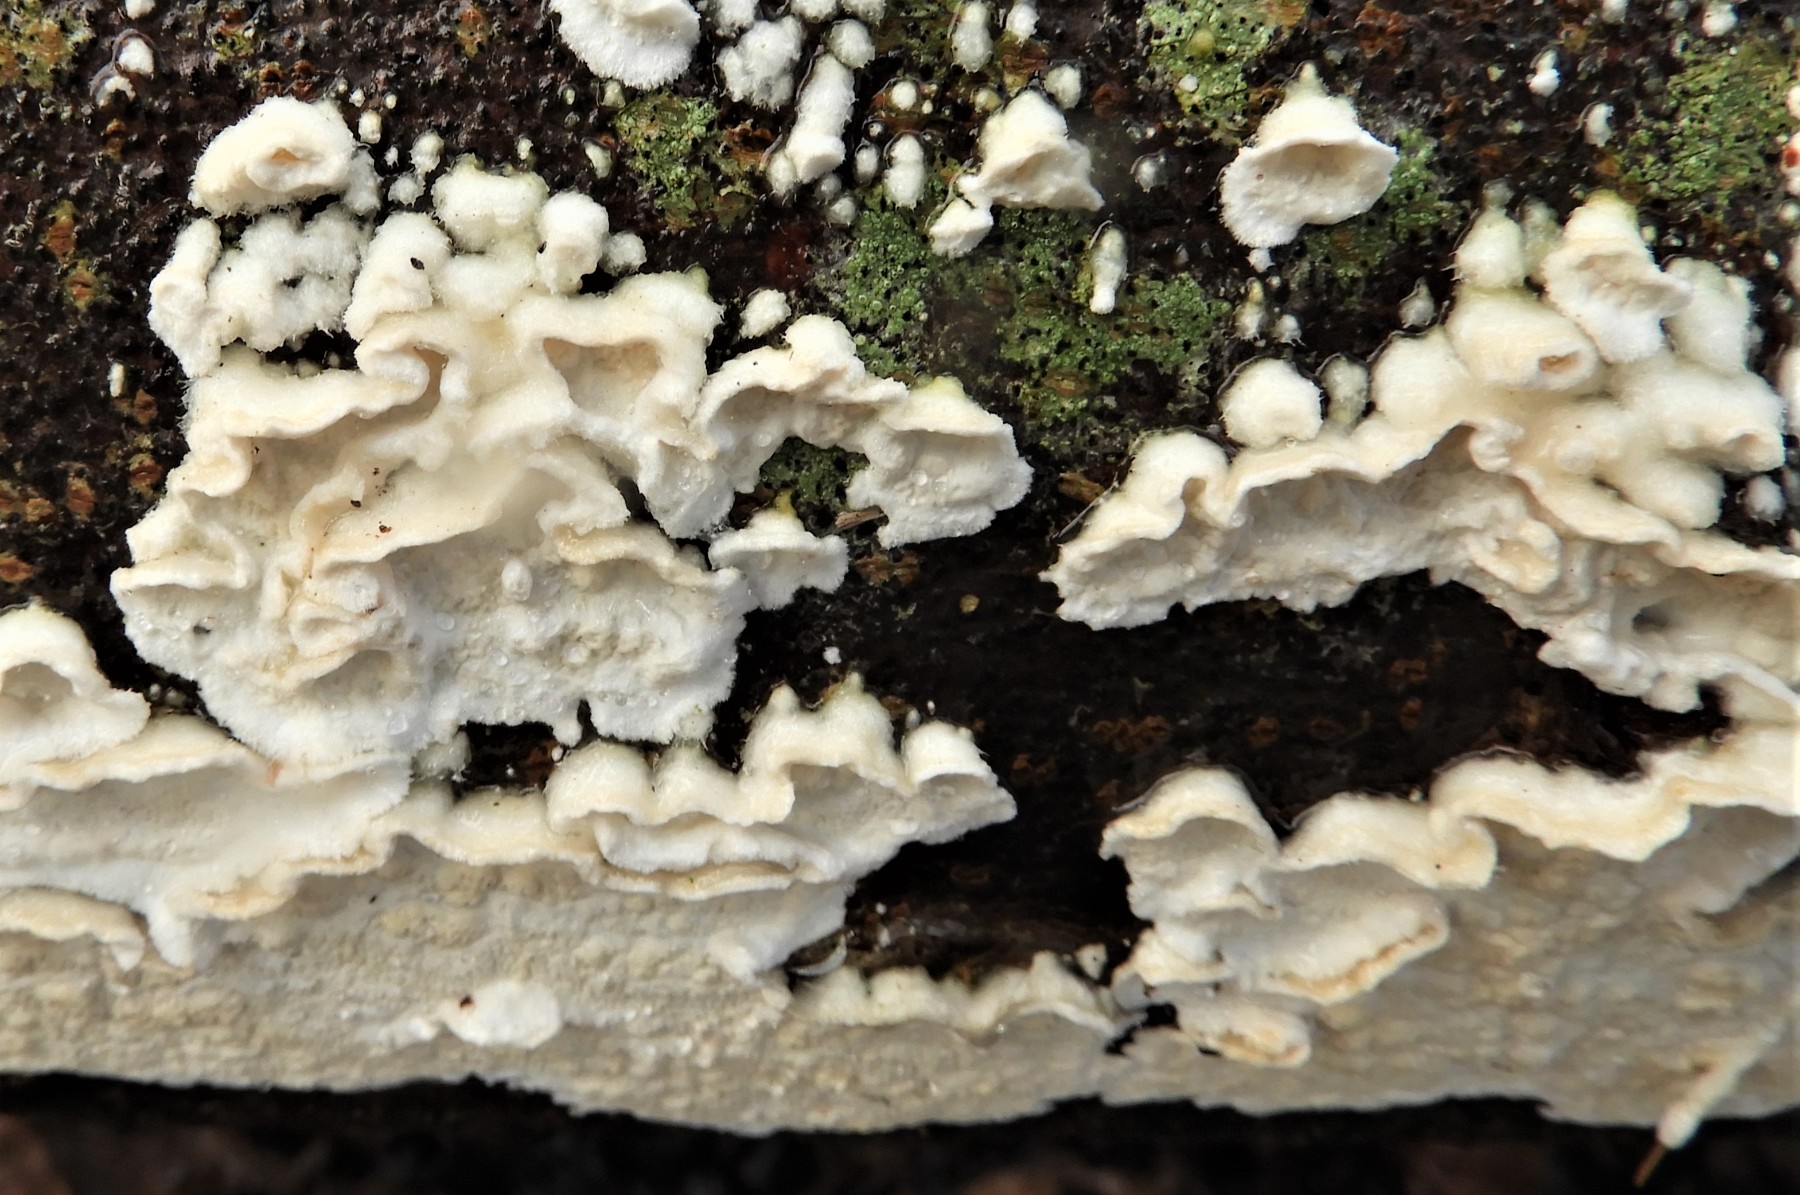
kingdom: Fungi
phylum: Basidiomycota
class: Agaricomycetes
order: Polyporales
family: Irpicaceae
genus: Byssomerulius
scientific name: Byssomerulius corium
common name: læder-åresvamp
